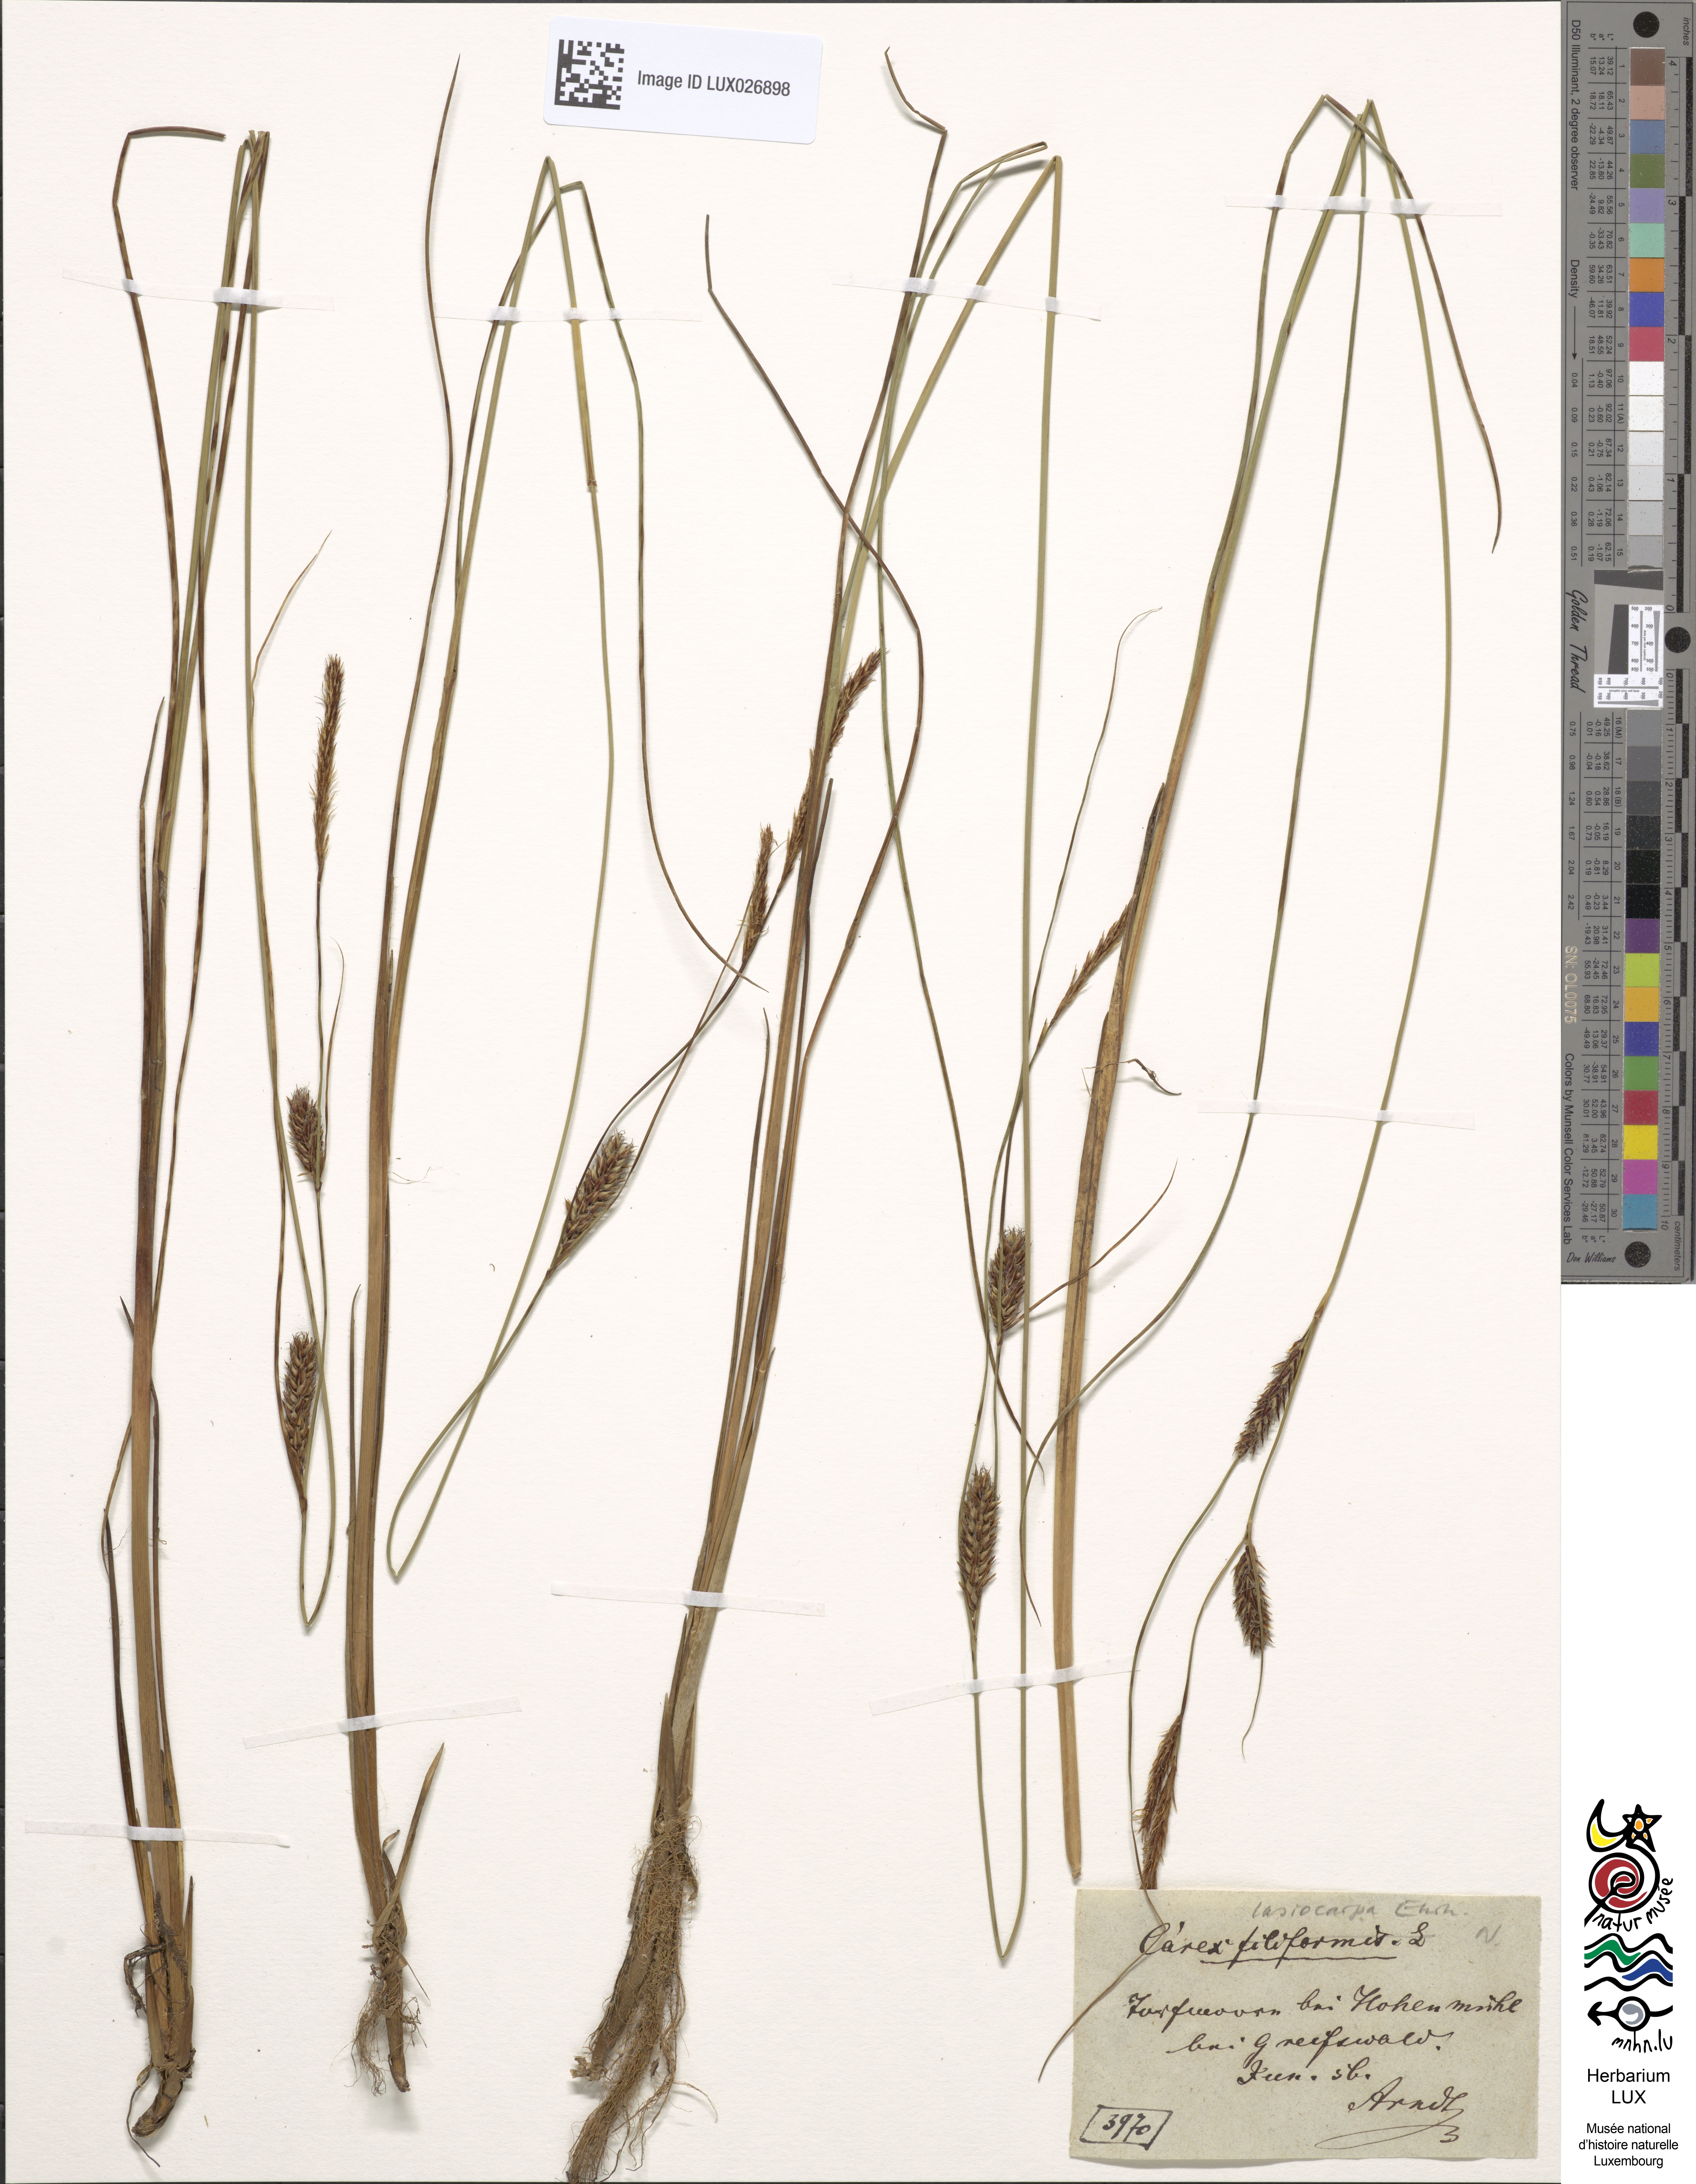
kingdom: Plantae
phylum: Tracheophyta
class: Liliopsida
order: Poales
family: Cyperaceae
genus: Carex
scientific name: Carex lasiocarpa
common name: Slender sedge
